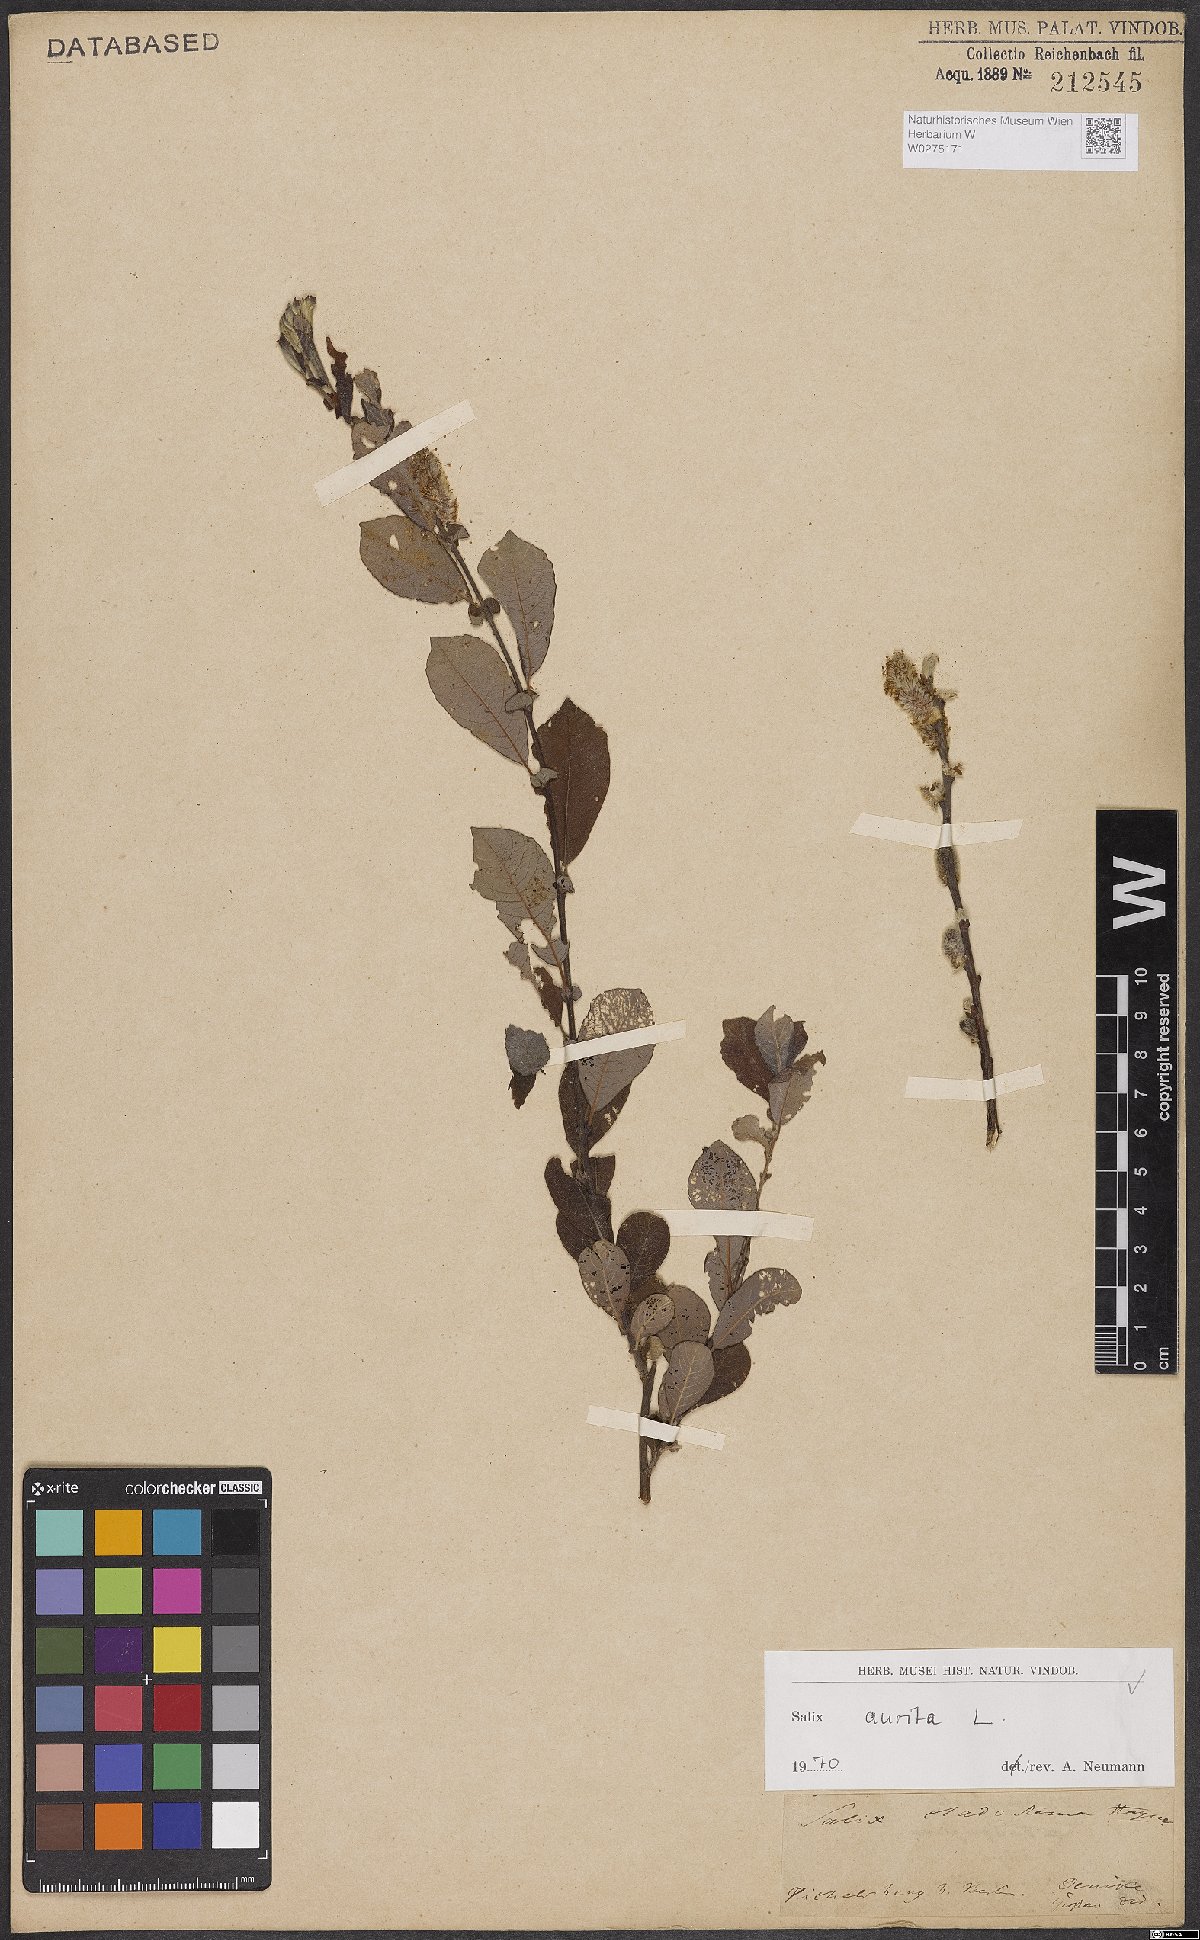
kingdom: Plantae
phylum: Tracheophyta
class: Magnoliopsida
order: Malpighiales
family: Salicaceae
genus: Salix
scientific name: Salix aurita
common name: Eared willow
